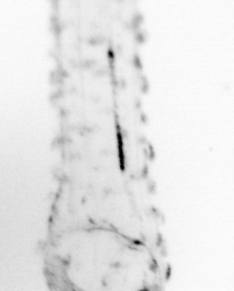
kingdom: Animalia
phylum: Chordata
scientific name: Chordata
